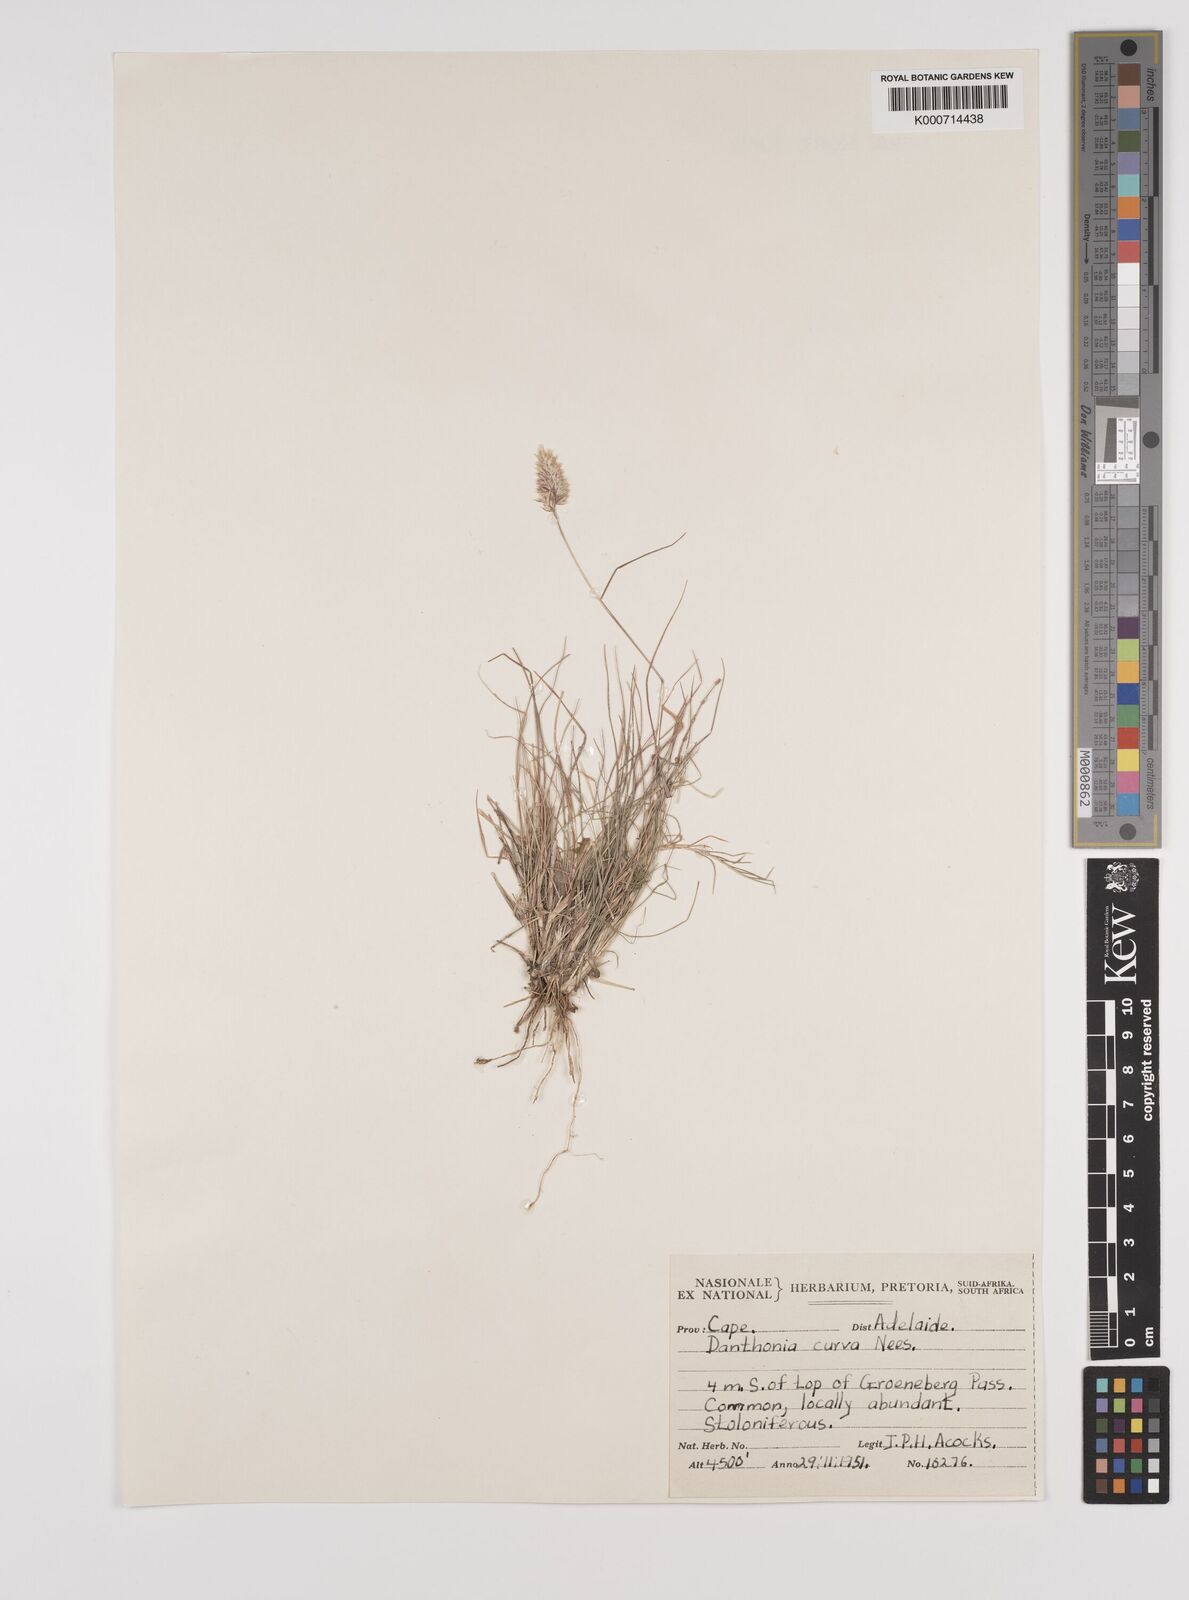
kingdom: Plantae
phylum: Tracheophyta
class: Liliopsida
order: Poales
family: Poaceae
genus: Rytidosperma
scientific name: Rytidosperma
